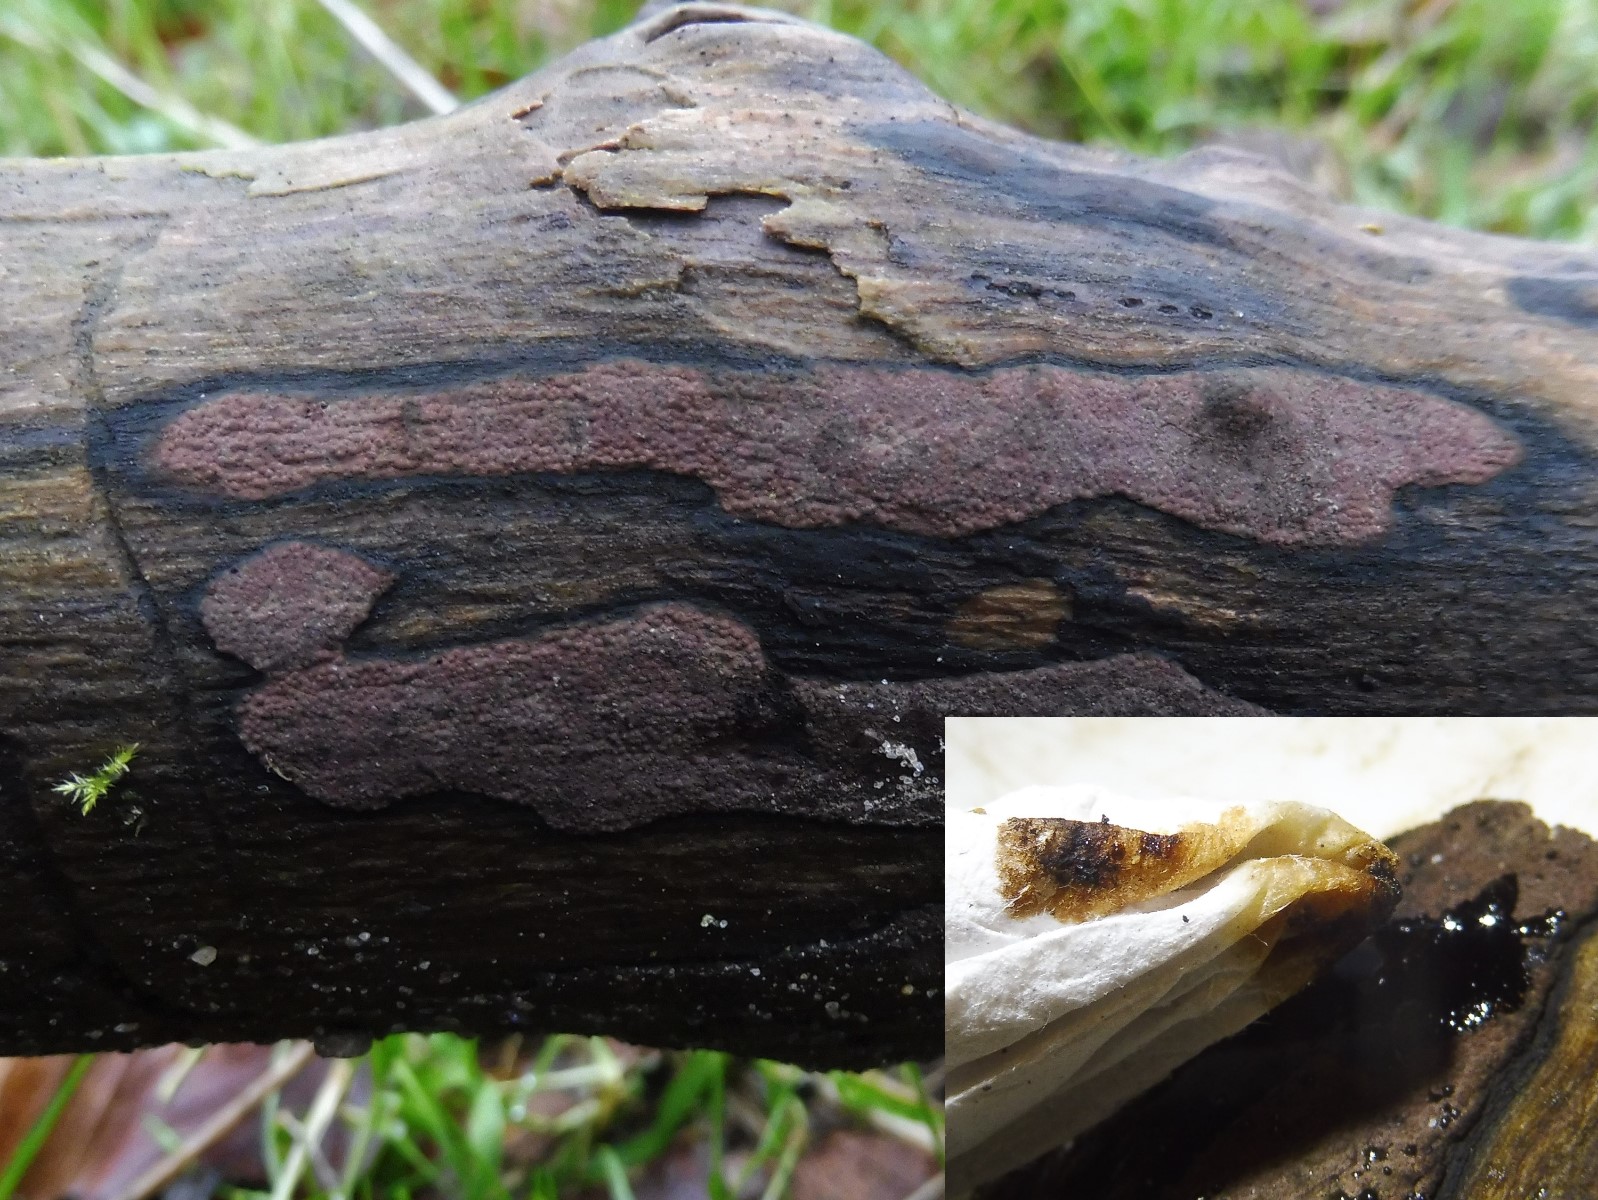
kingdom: Fungi
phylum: Ascomycota
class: Sordariomycetes
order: Xylariales
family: Hypoxylaceae
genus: Hypoxylon
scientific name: Hypoxylon petriniae
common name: nedsænket kulbær
